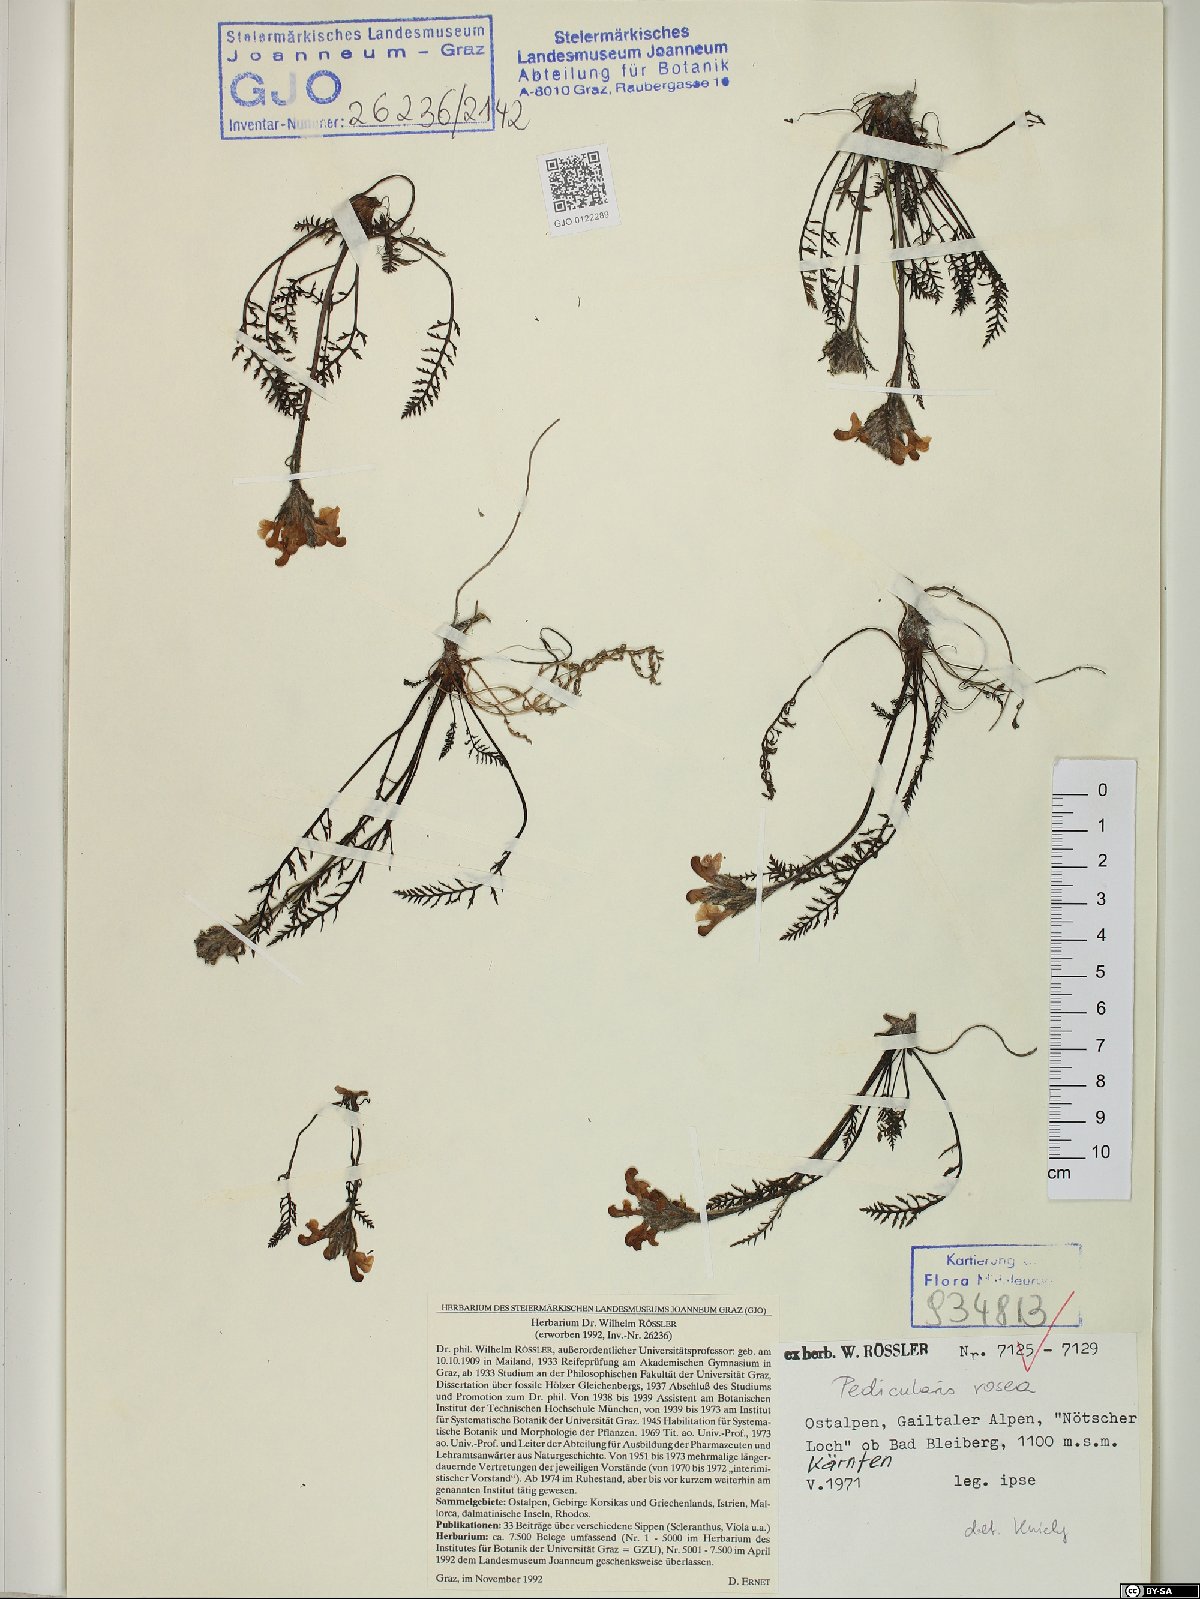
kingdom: Plantae
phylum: Tracheophyta
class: Magnoliopsida
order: Lamiales
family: Orobanchaceae
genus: Pedicularis
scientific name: Pedicularis rosea
